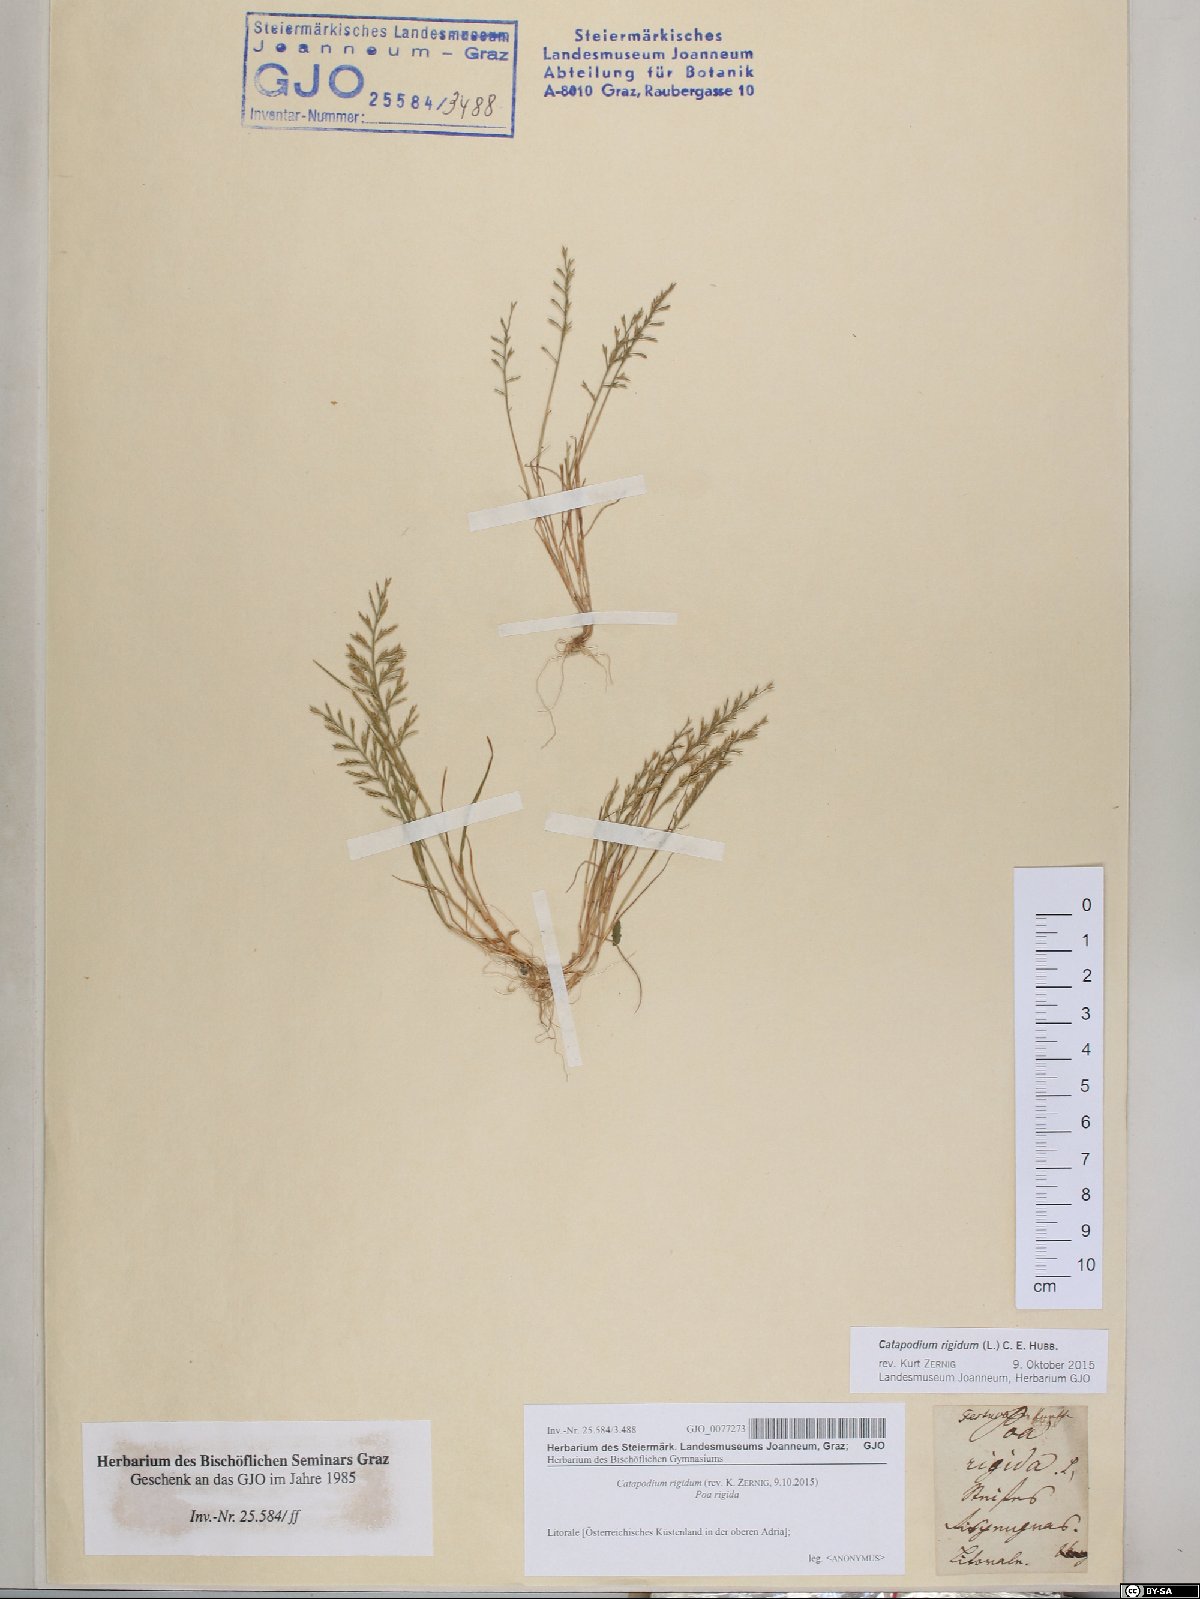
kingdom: Plantae
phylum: Tracheophyta
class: Liliopsida
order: Poales
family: Poaceae
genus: Catapodium
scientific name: Catapodium rigidum
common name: Fern-grass
